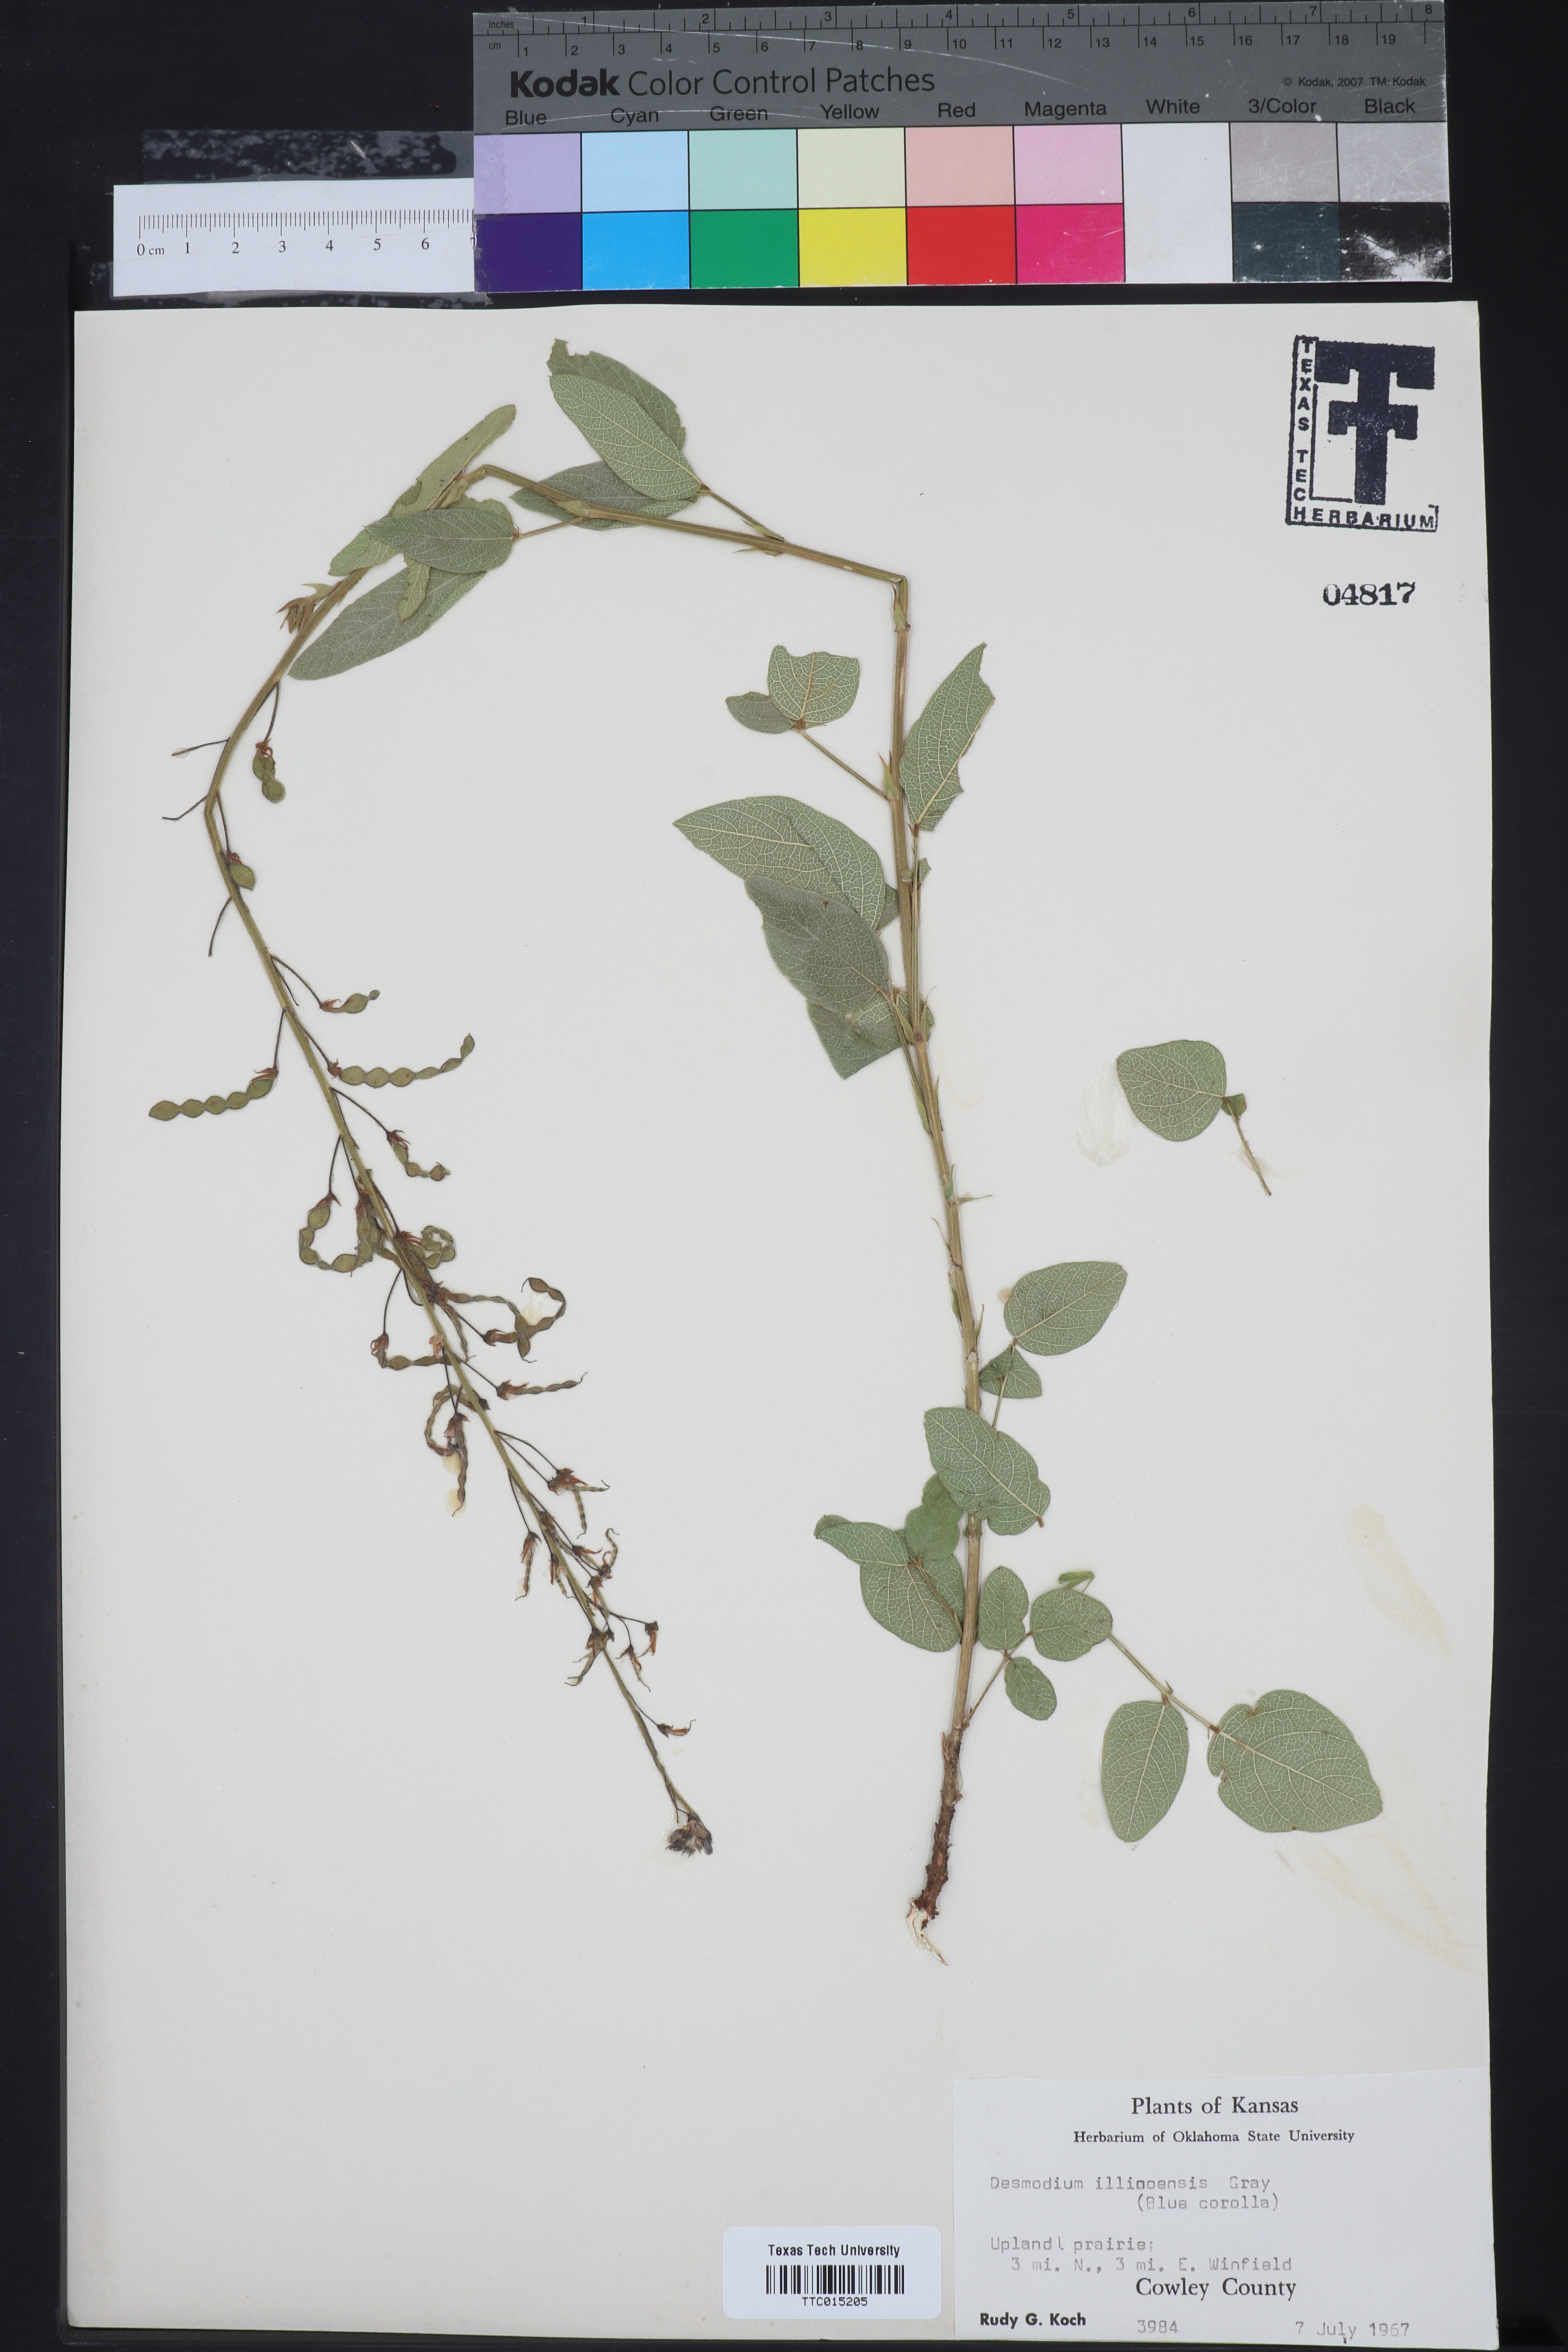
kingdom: Plantae
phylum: Tracheophyta
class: Magnoliopsida
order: Fabales
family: Fabaceae
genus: Desmodium
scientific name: Desmodium illinoense
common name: Illinois tick-clover
